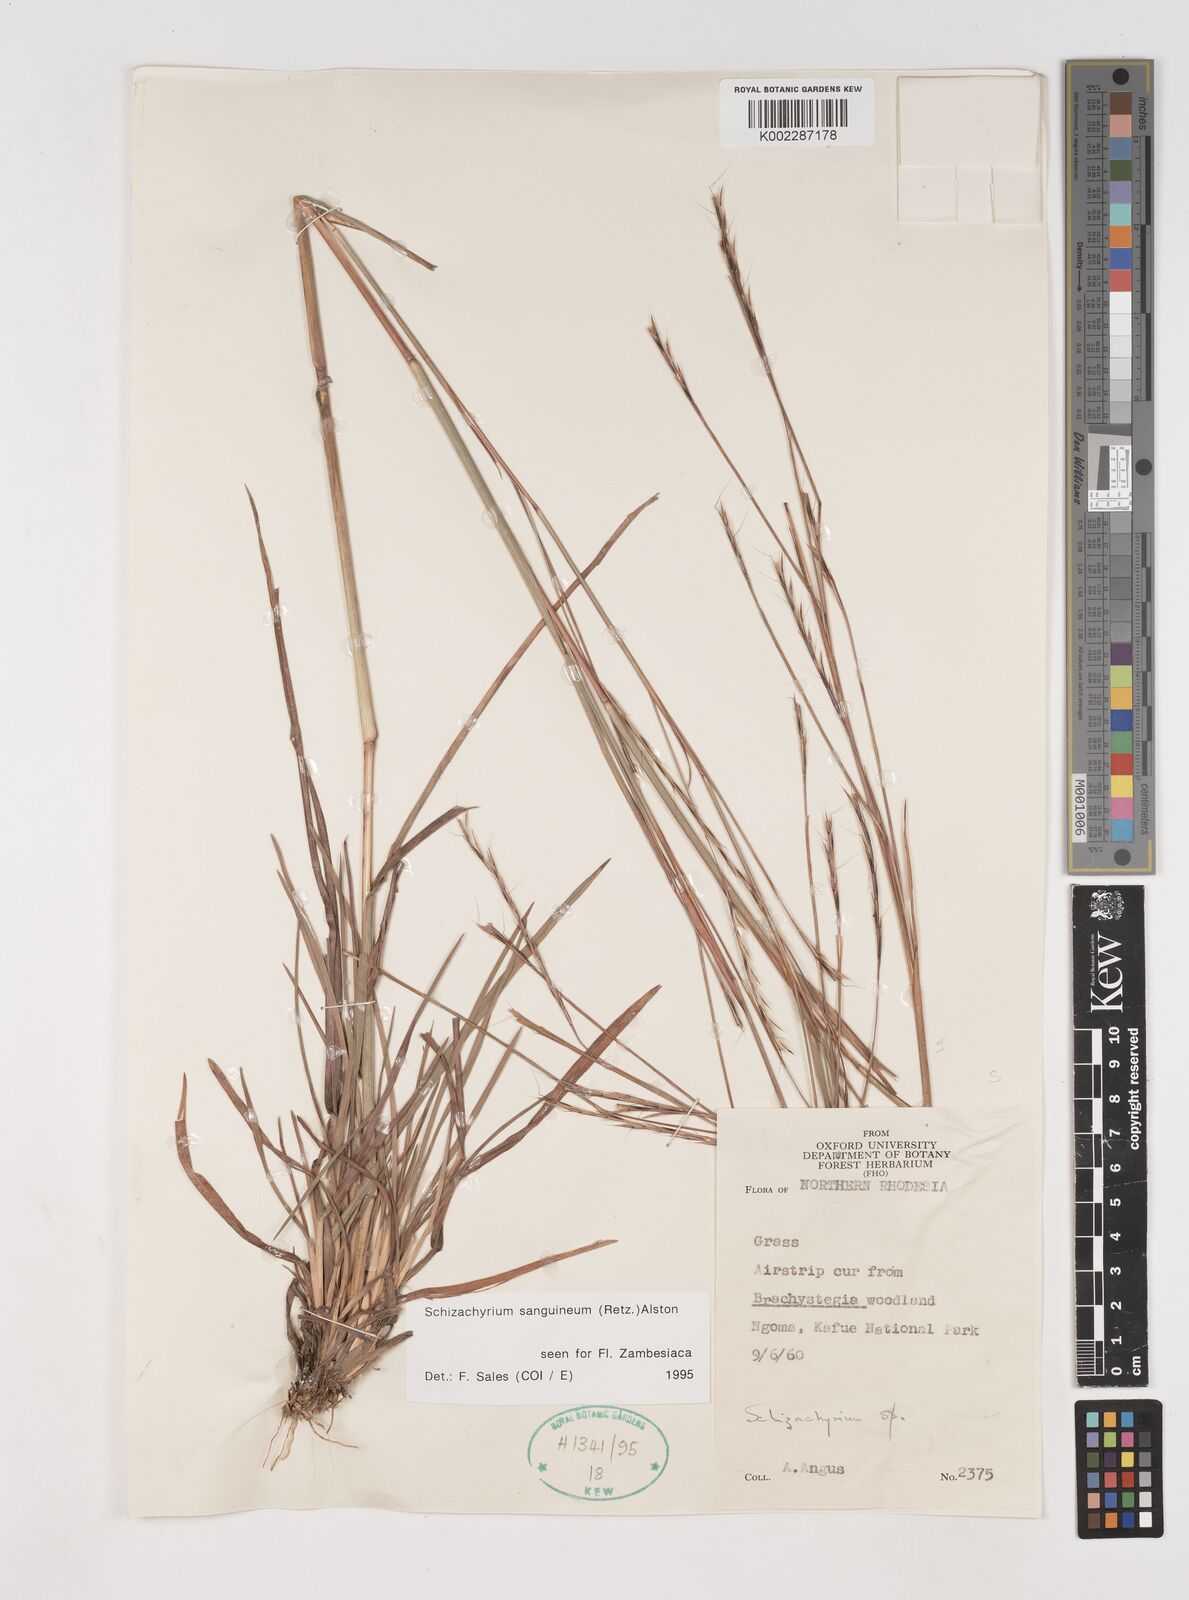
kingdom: Plantae
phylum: Tracheophyta
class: Liliopsida
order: Poales
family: Poaceae
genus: Schizachyrium
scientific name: Schizachyrium sanguineum
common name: Crimson bluestem
